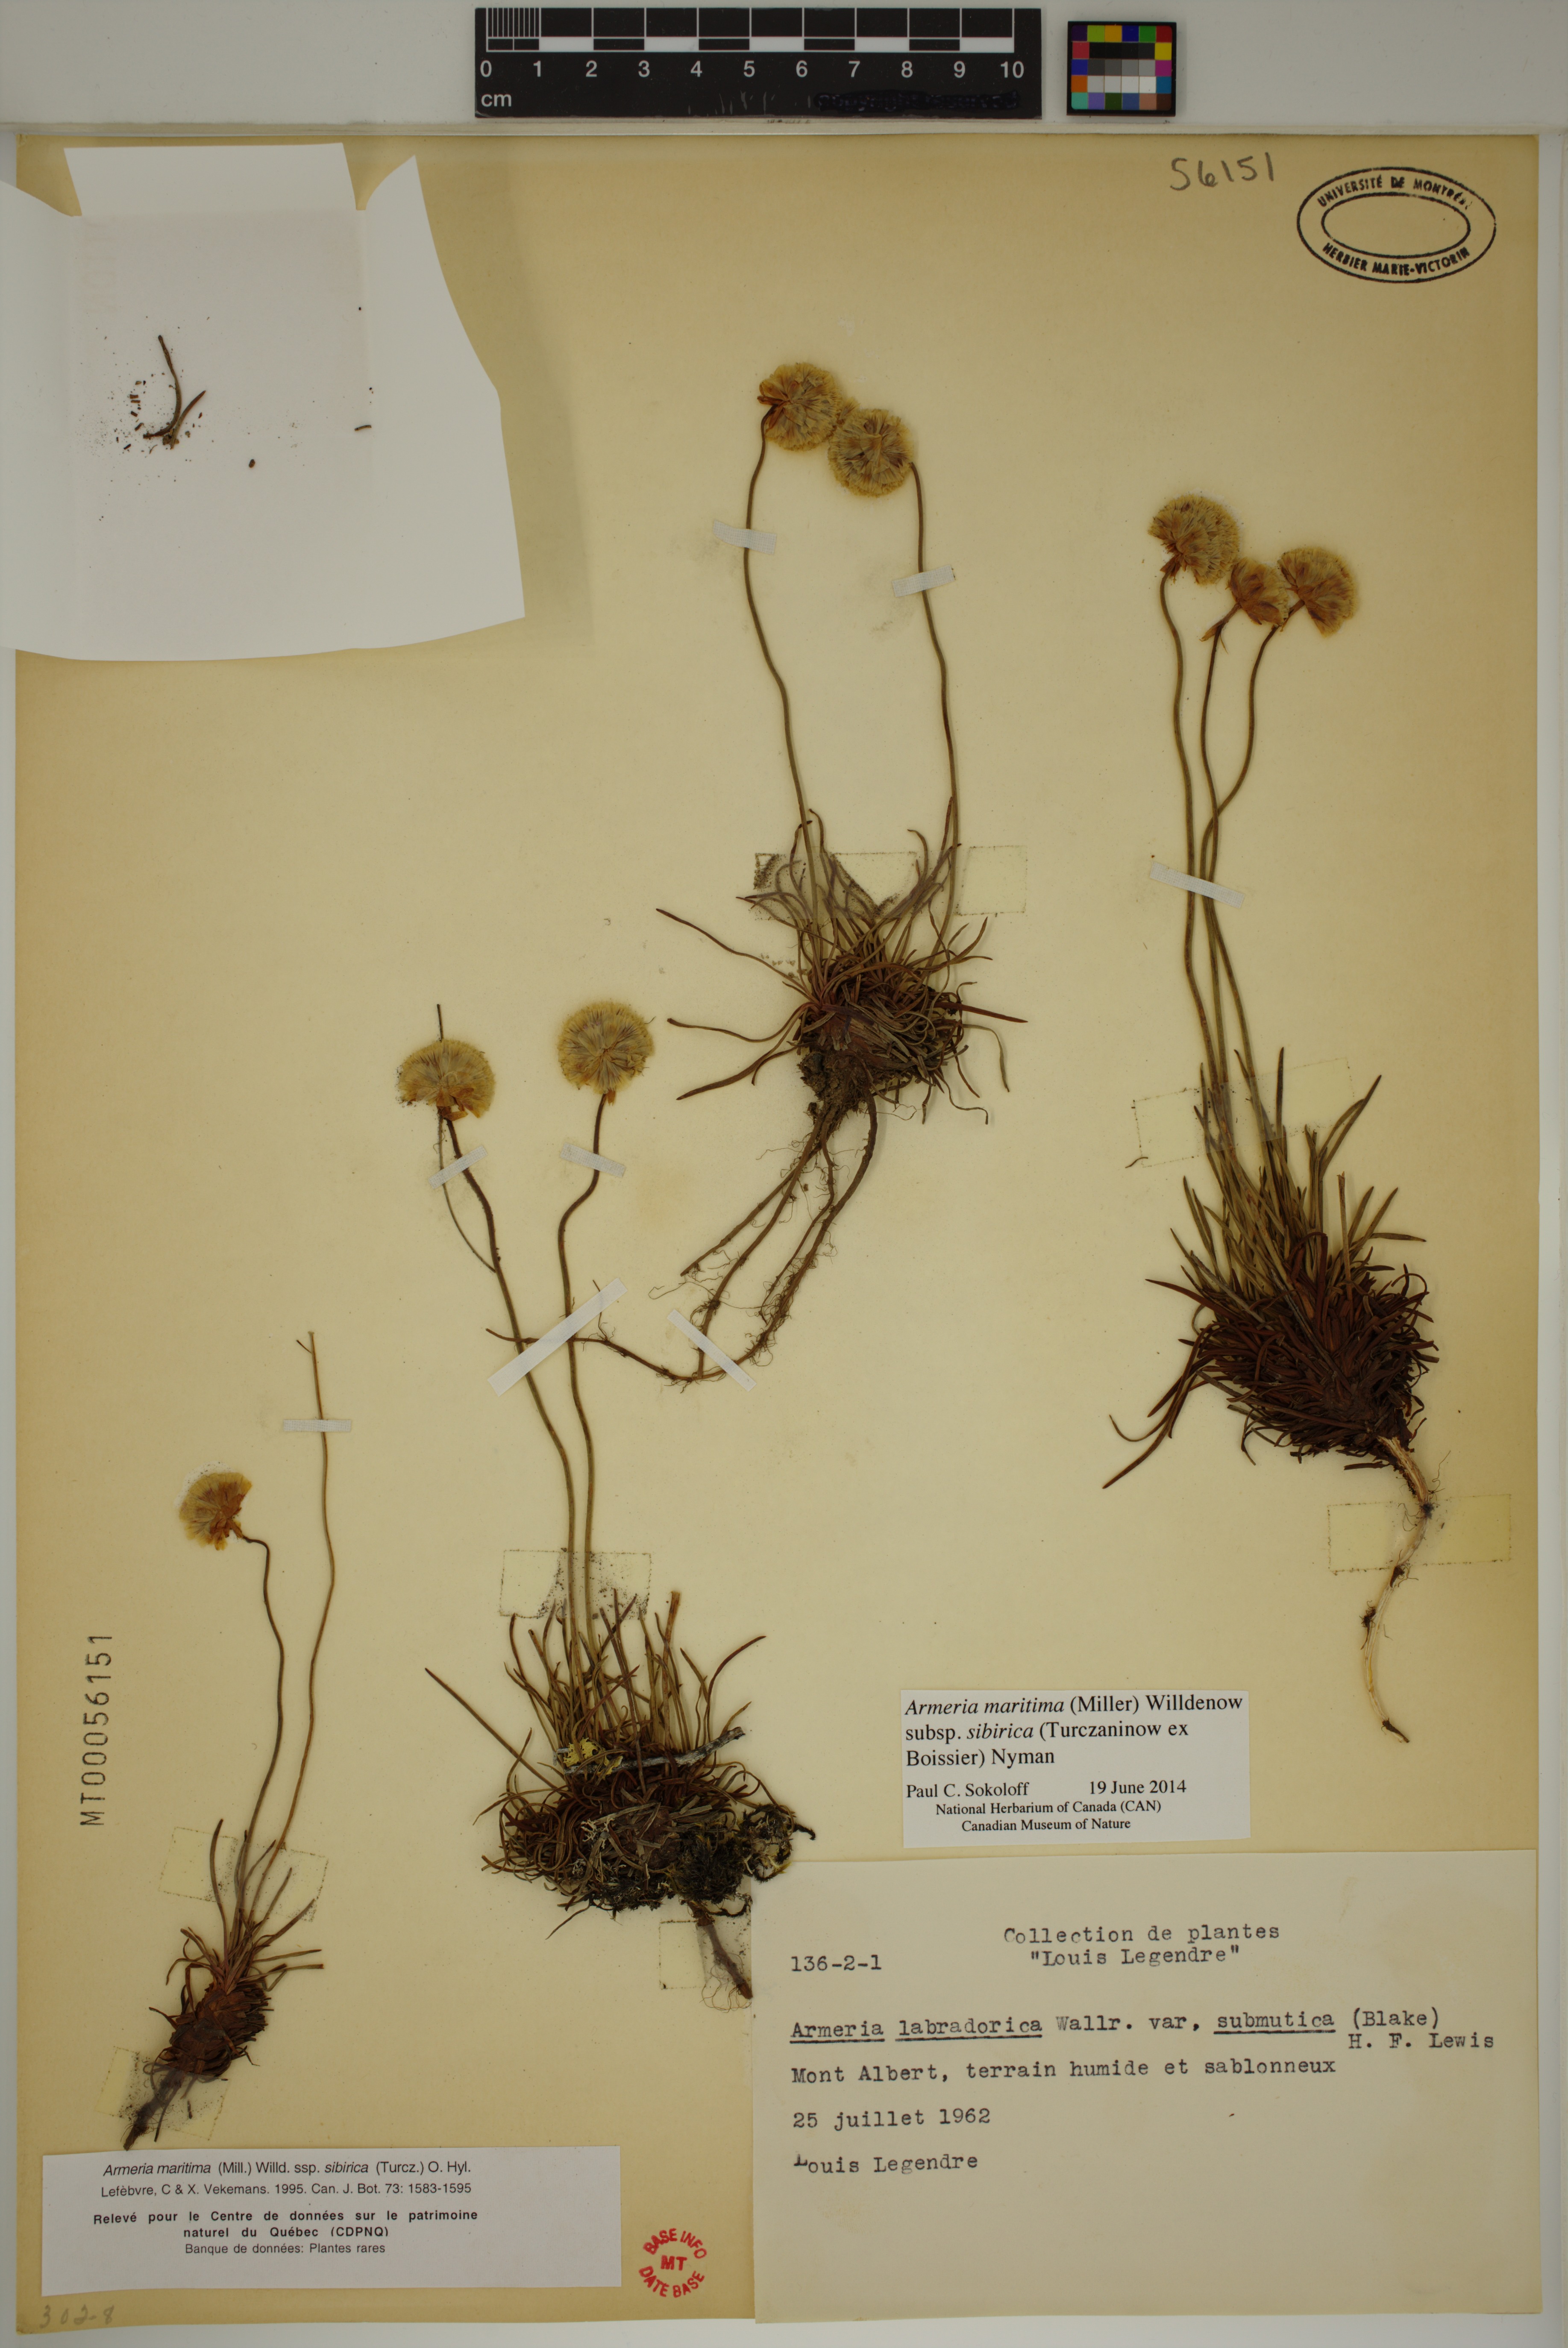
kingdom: Plantae
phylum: Tracheophyta
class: Magnoliopsida
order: Caryophyllales
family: Plumbaginaceae
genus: Armeria
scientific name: Armeria maritima
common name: Thrift
